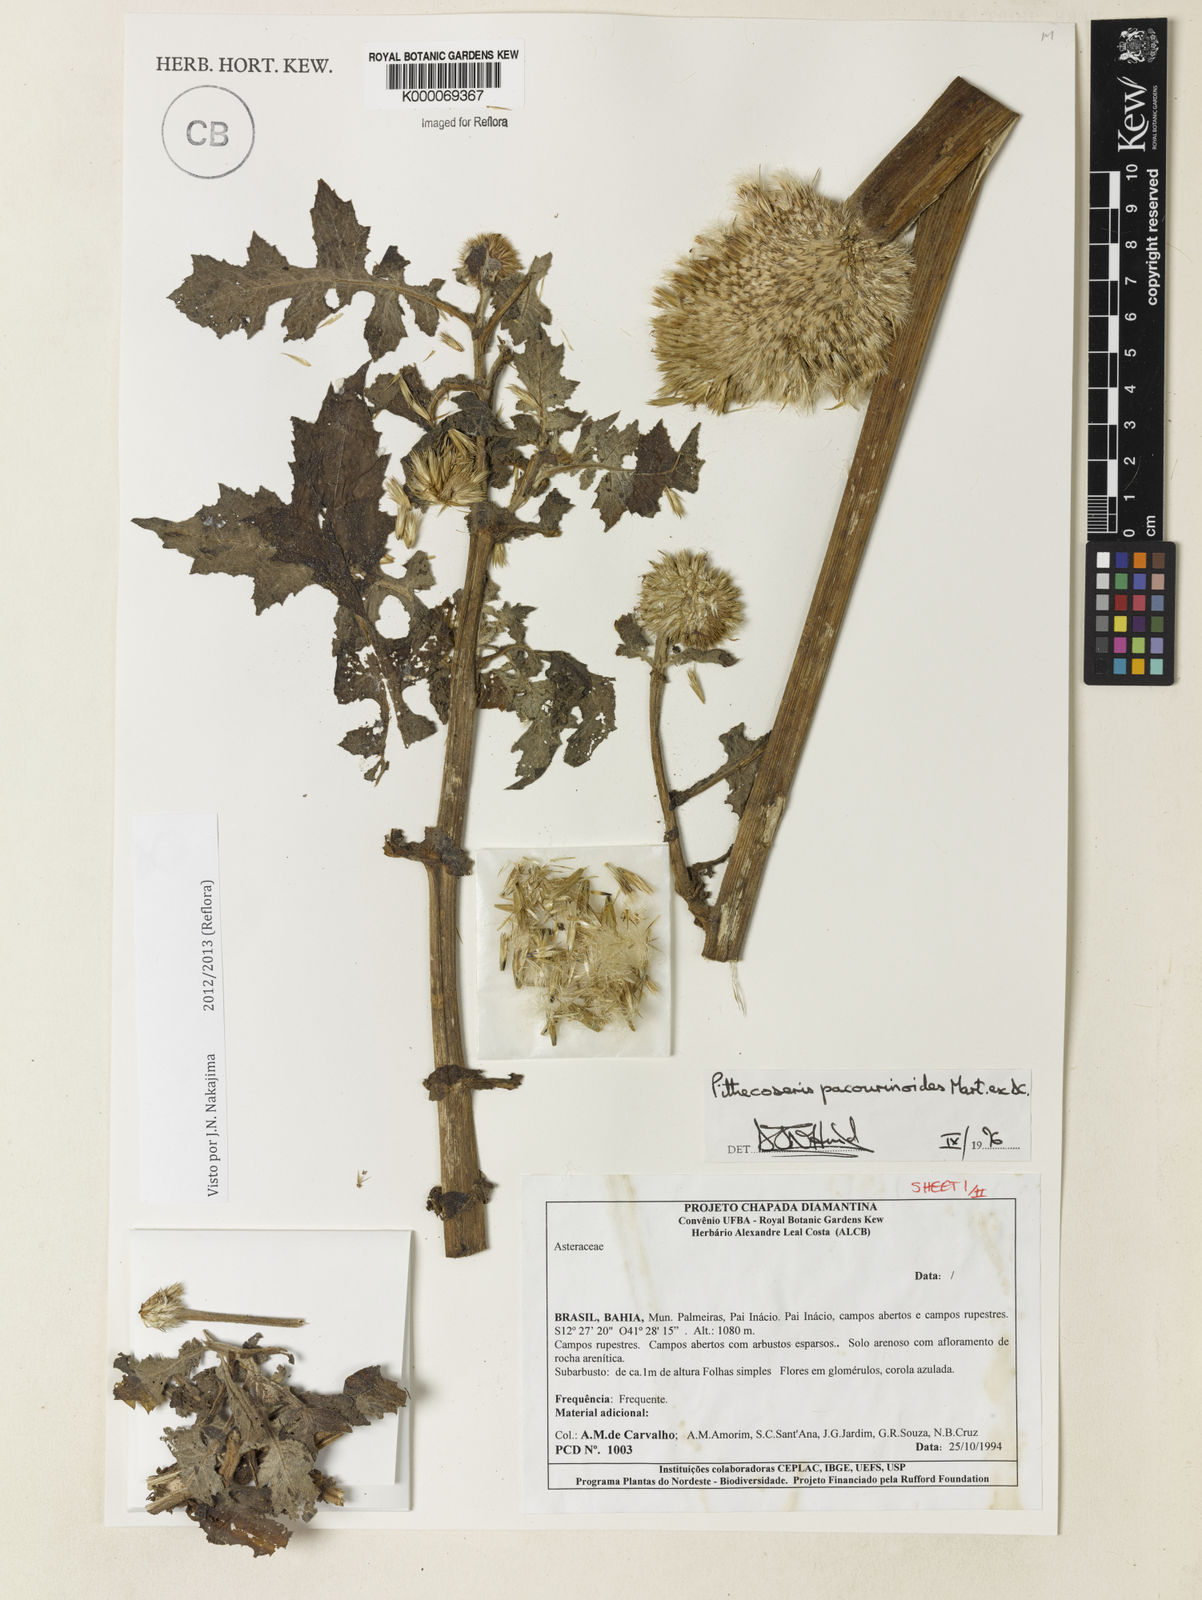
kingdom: Plantae
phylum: Tracheophyta
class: Magnoliopsida
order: Asterales
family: Asteraceae
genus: Chresta
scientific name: Chresta pacourinoides
